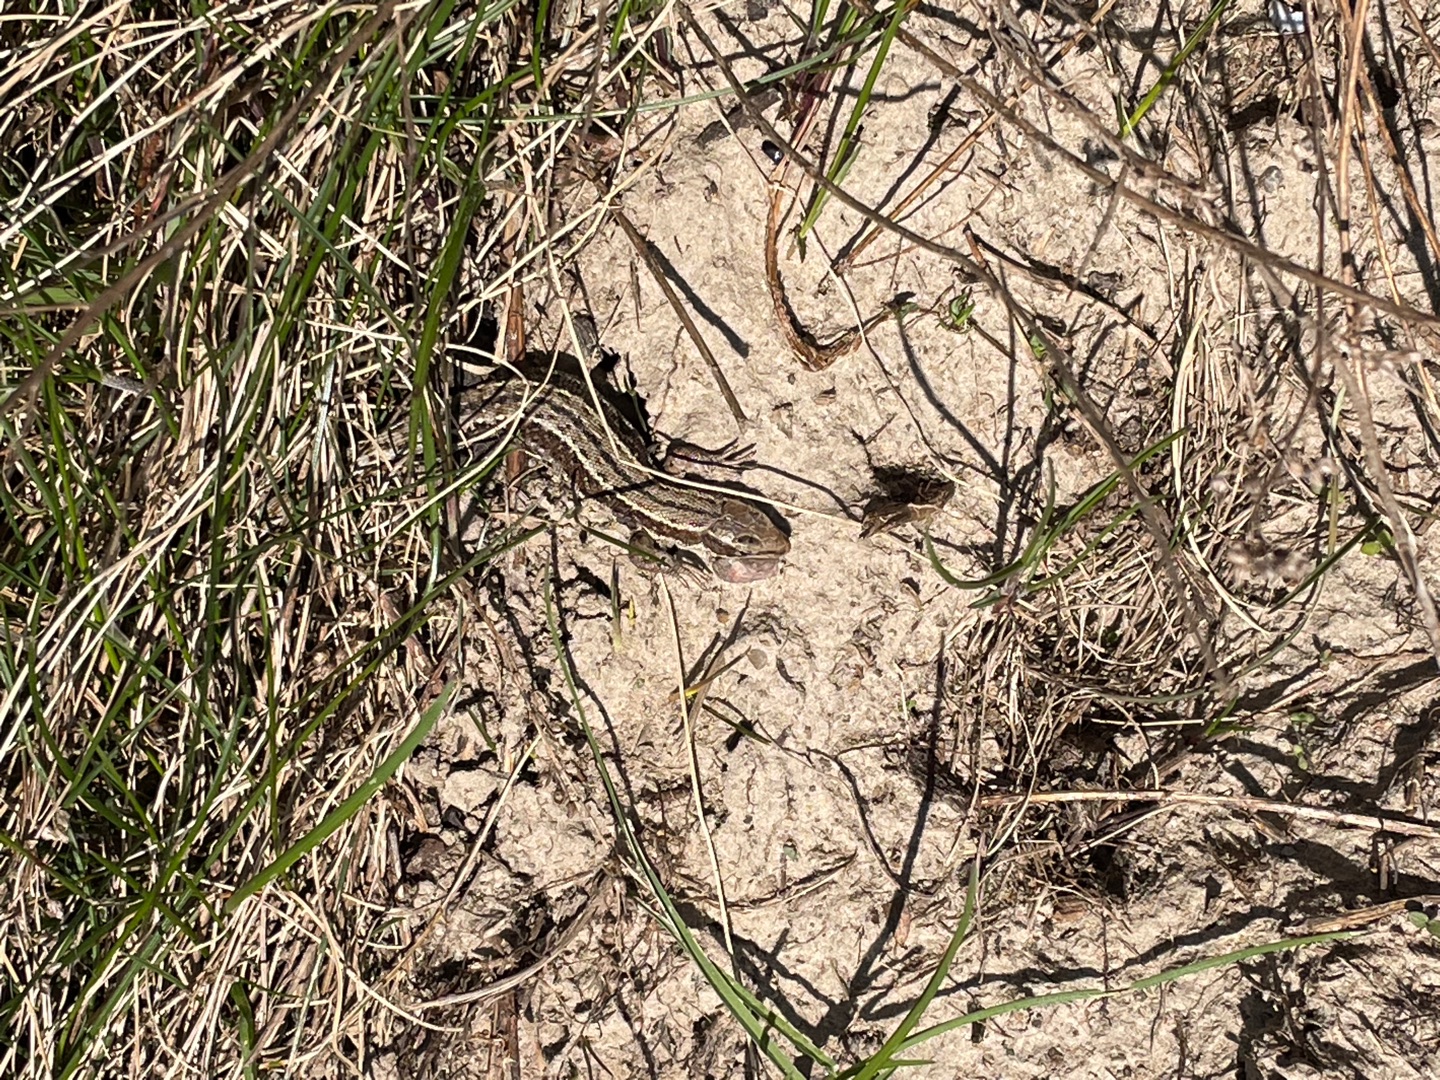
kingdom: Animalia
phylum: Chordata
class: Squamata
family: Lacertidae
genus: Zootoca
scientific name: Zootoca vivipara
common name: Skovfirben
